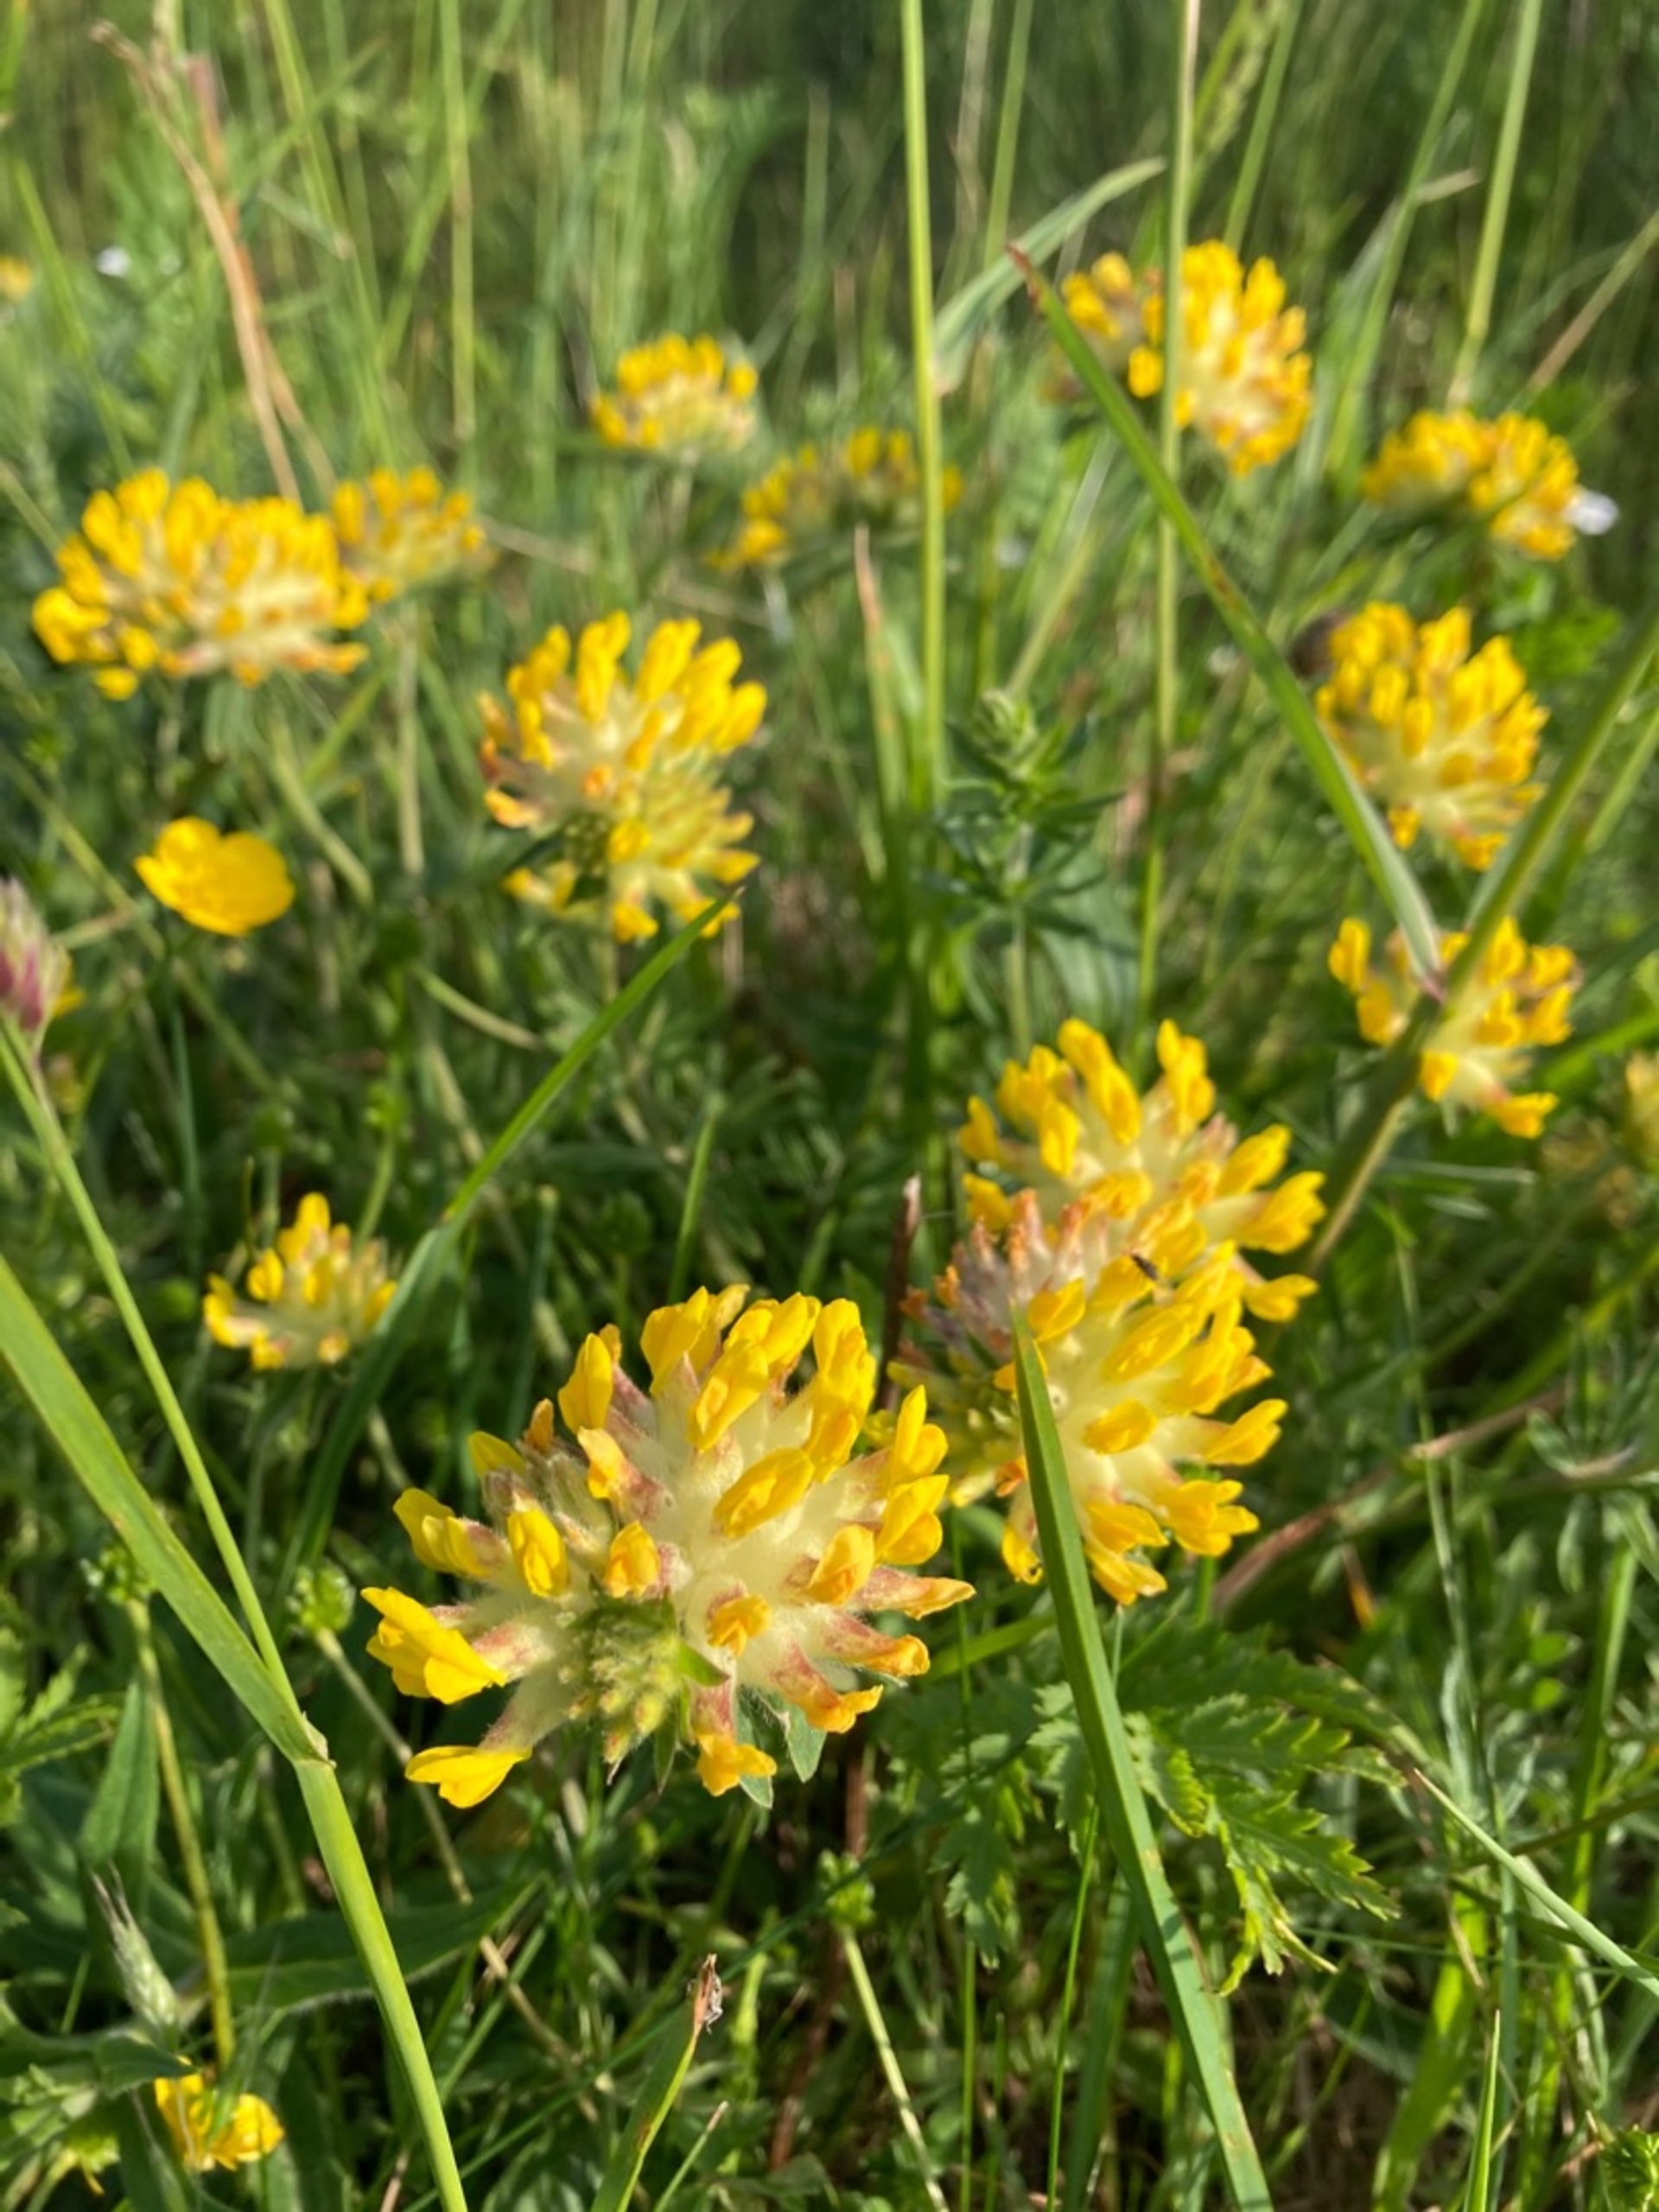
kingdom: Plantae
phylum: Tracheophyta
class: Magnoliopsida
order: Fabales
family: Fabaceae
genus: Anthyllis
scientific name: Anthyllis vulneraria
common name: Rundbælg
